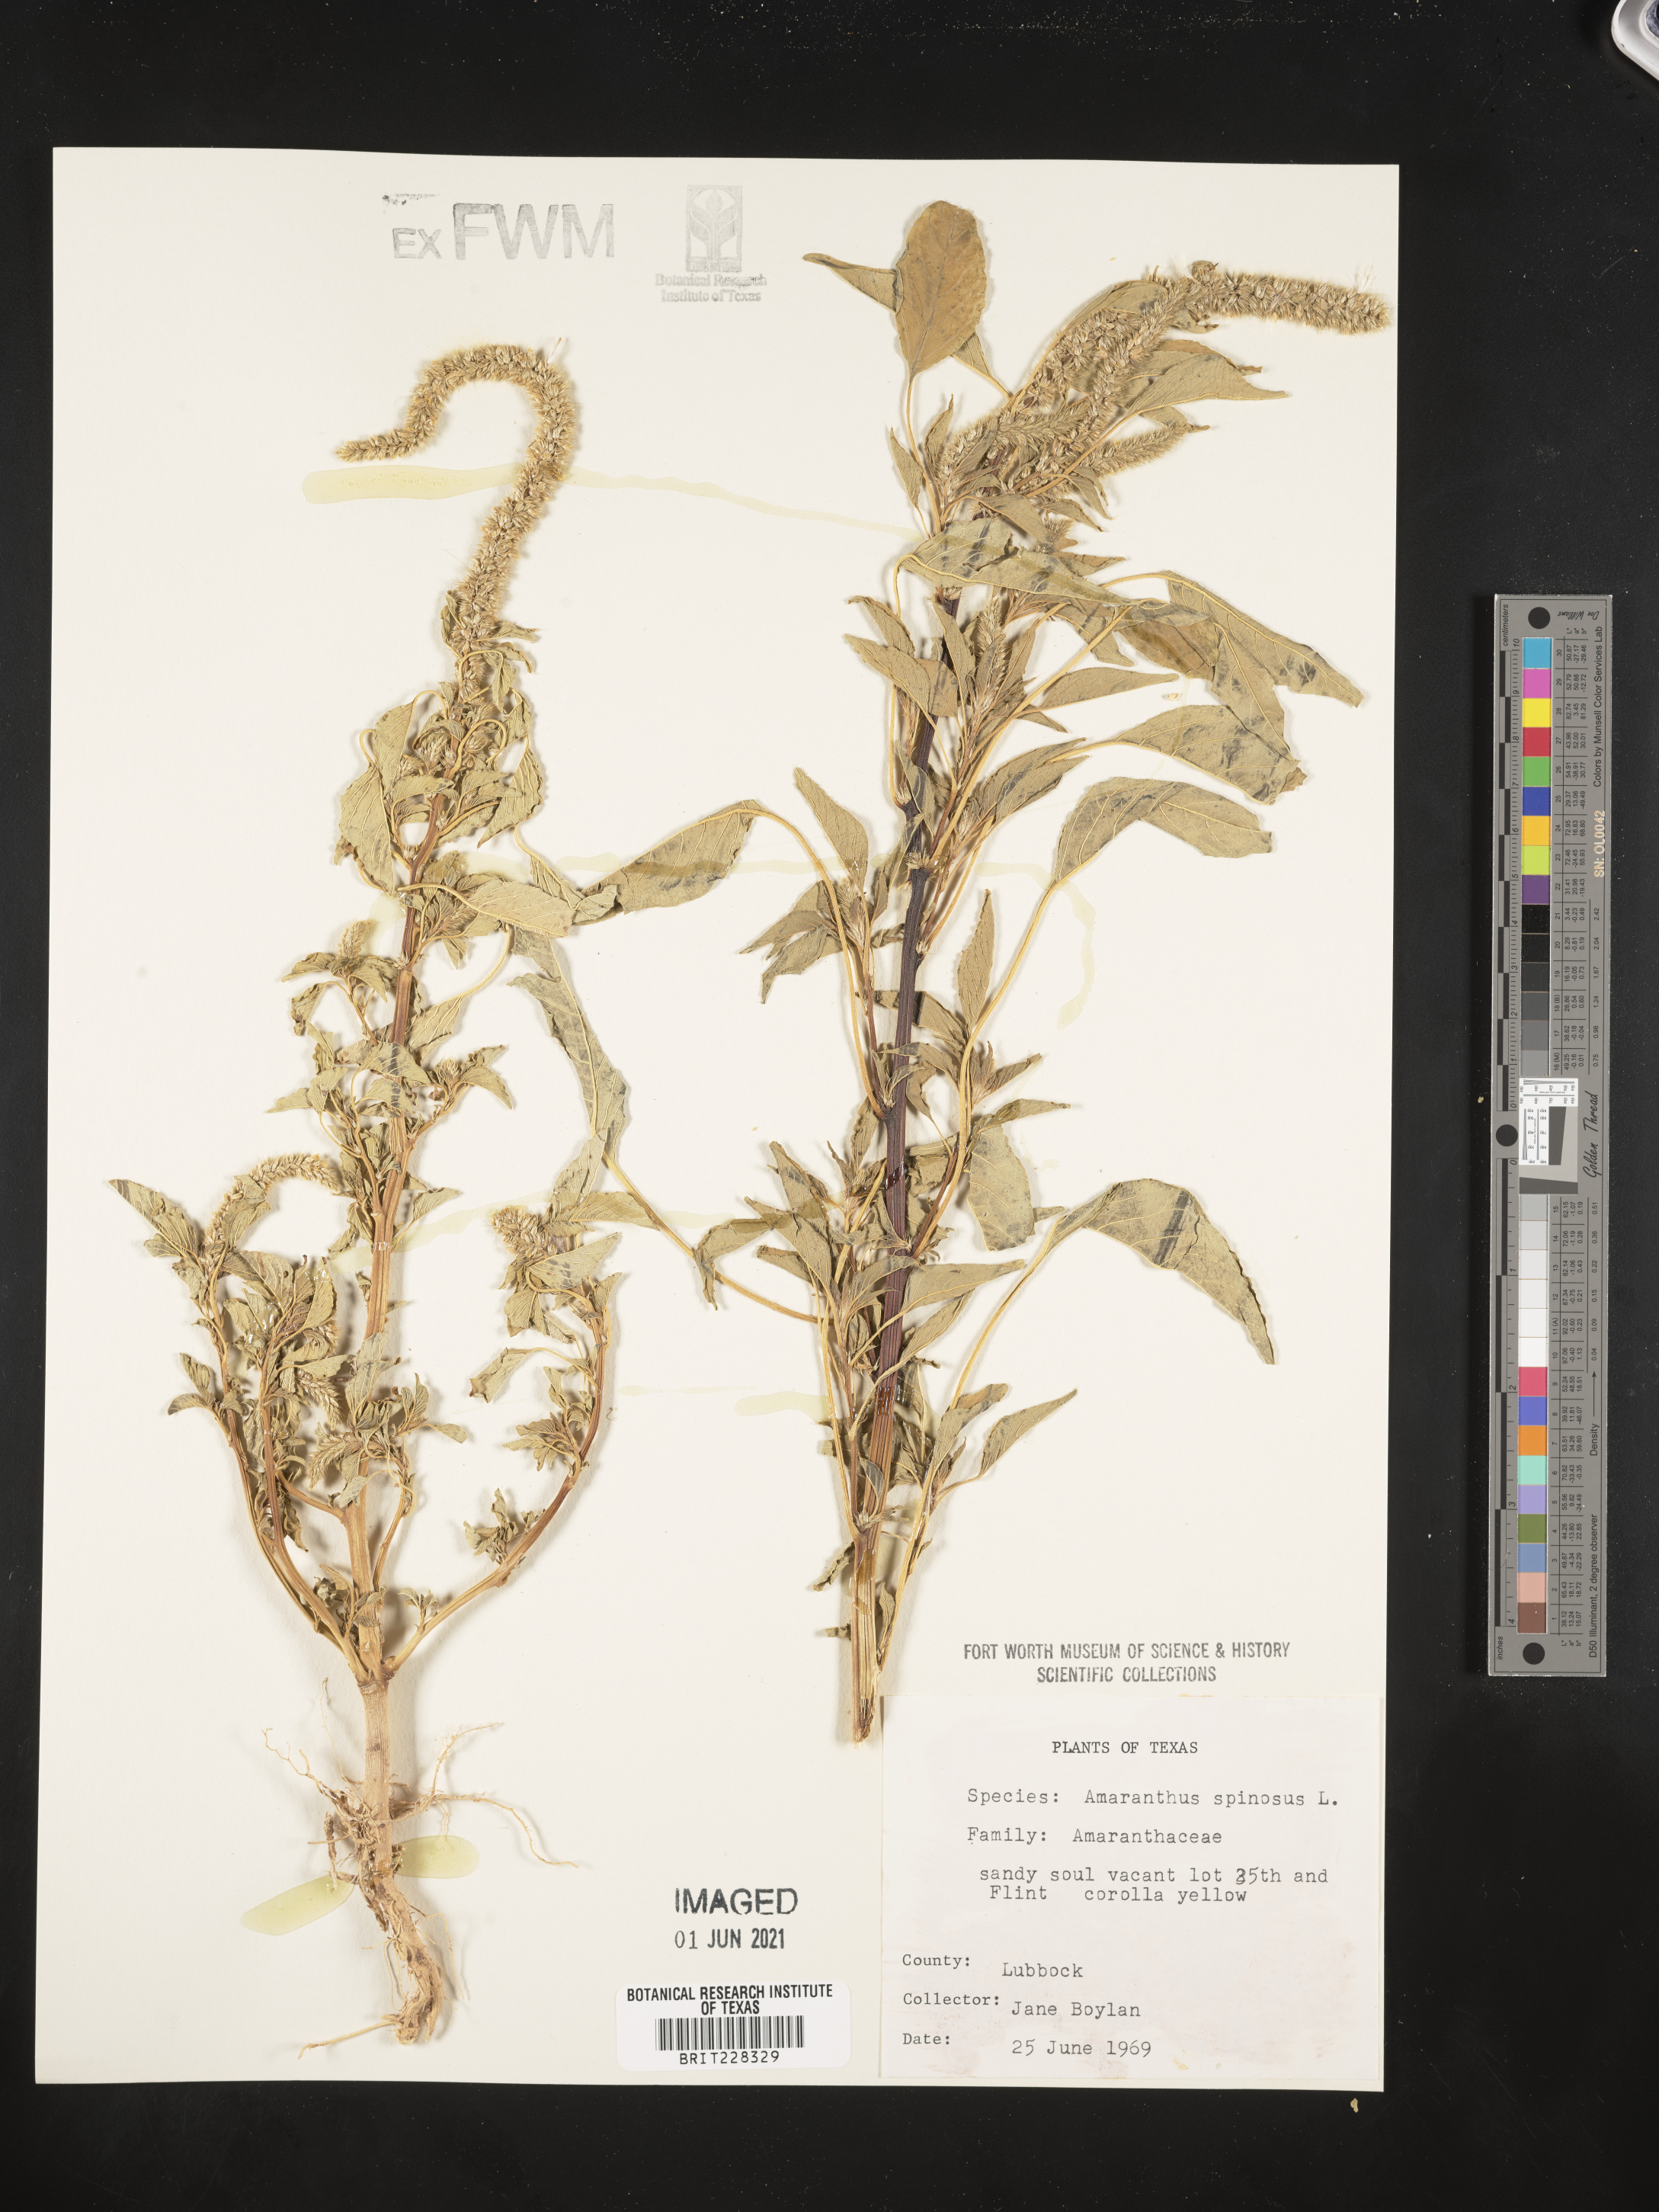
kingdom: Plantae
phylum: Tracheophyta
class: Magnoliopsida
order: Caryophyllales
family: Amaranthaceae
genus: Amaranthus
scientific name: Amaranthus spinosus
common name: Spiny amaranth
